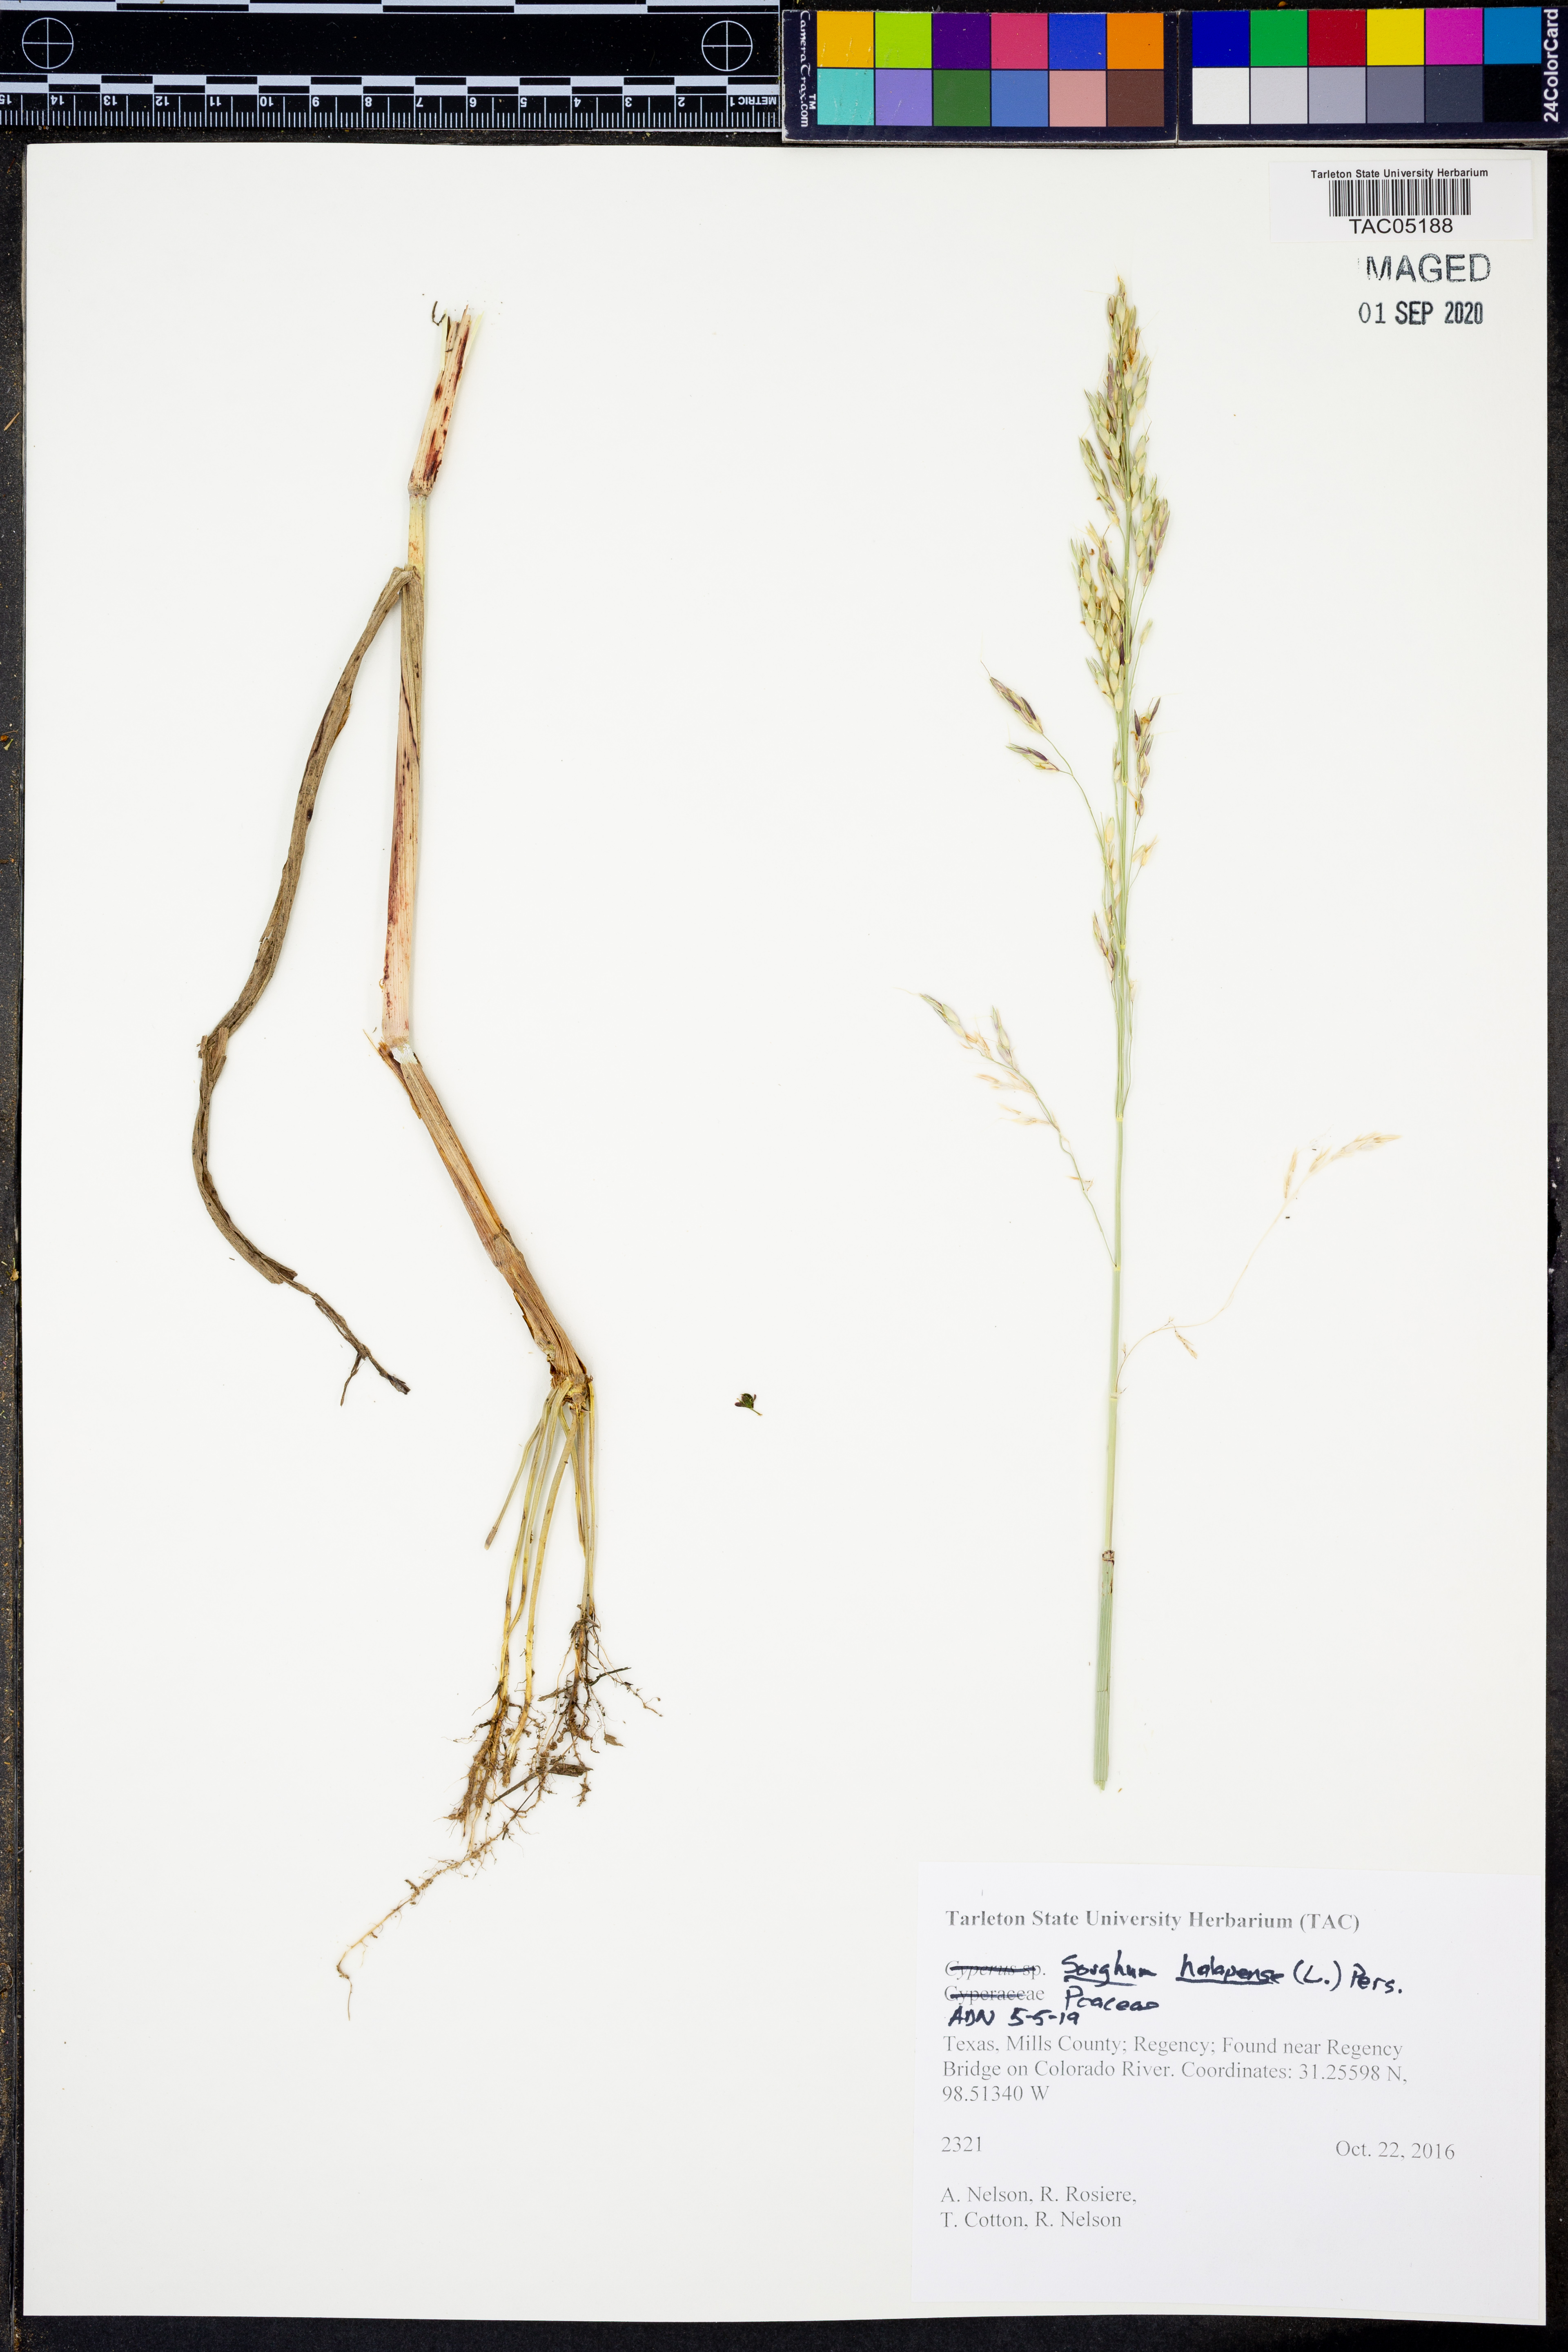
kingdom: Plantae
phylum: Tracheophyta
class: Liliopsida
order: Poales
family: Poaceae
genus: Sorghum
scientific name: Sorghum halepense
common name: Johnson-grass
